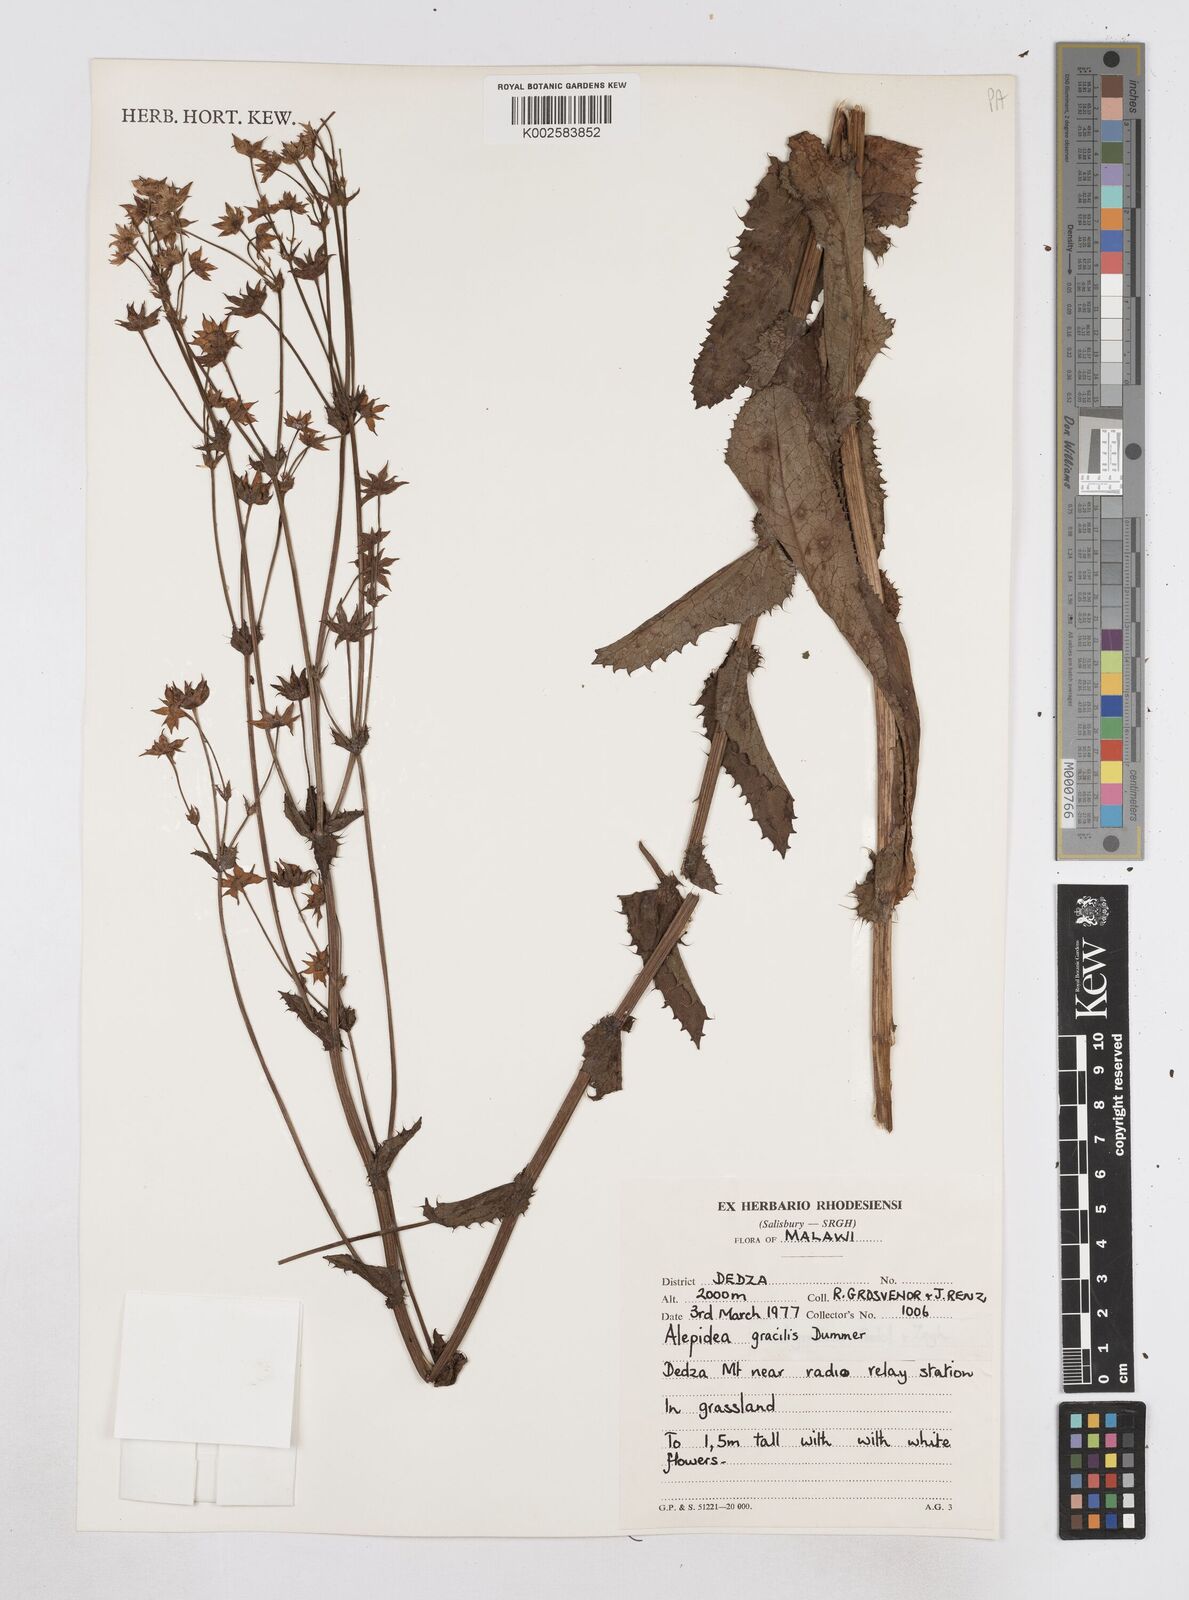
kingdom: Plantae
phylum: Tracheophyta
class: Magnoliopsida
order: Apiales
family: Apiaceae
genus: Alepidea
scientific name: Alepidea peduncularis
